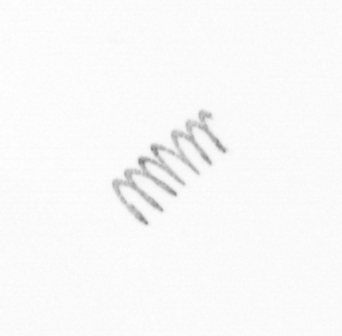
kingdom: Chromista
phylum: Ochrophyta
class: Bacillariophyceae
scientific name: Bacillariophyceae
